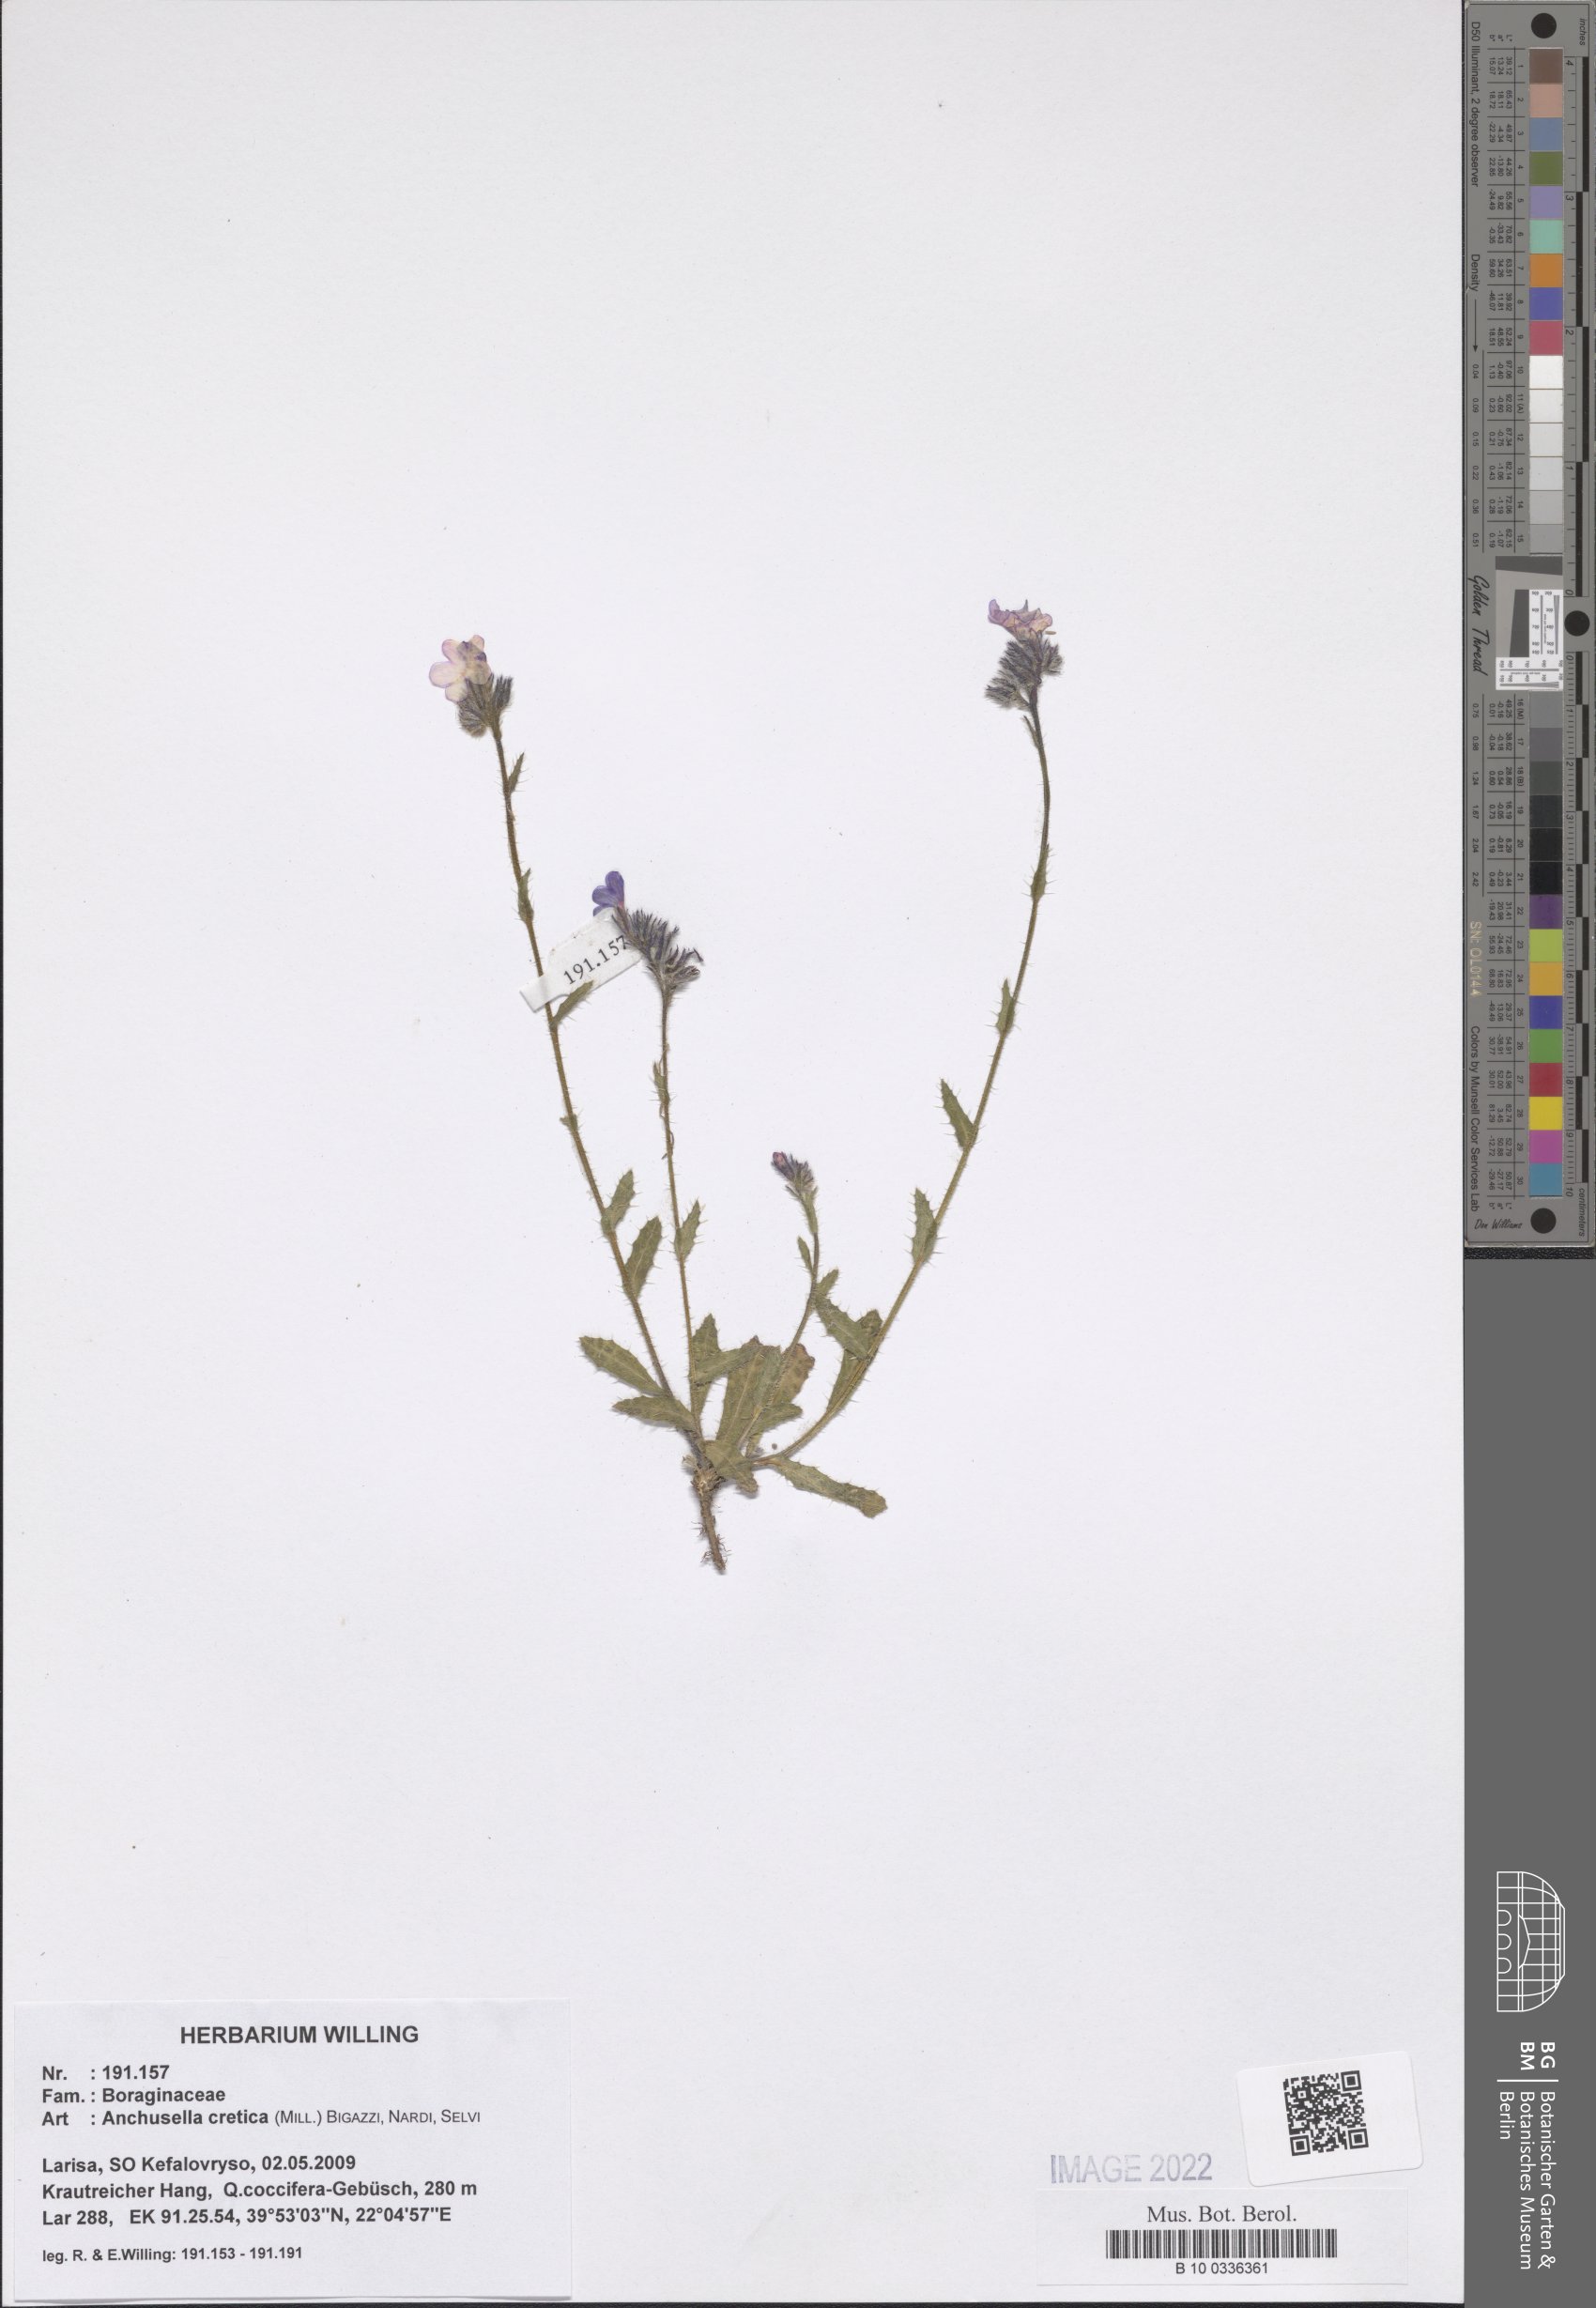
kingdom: Plantae
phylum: Tracheophyta
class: Magnoliopsida
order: Boraginales
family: Boraginaceae
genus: Anchusella
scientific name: Anchusella cretica
